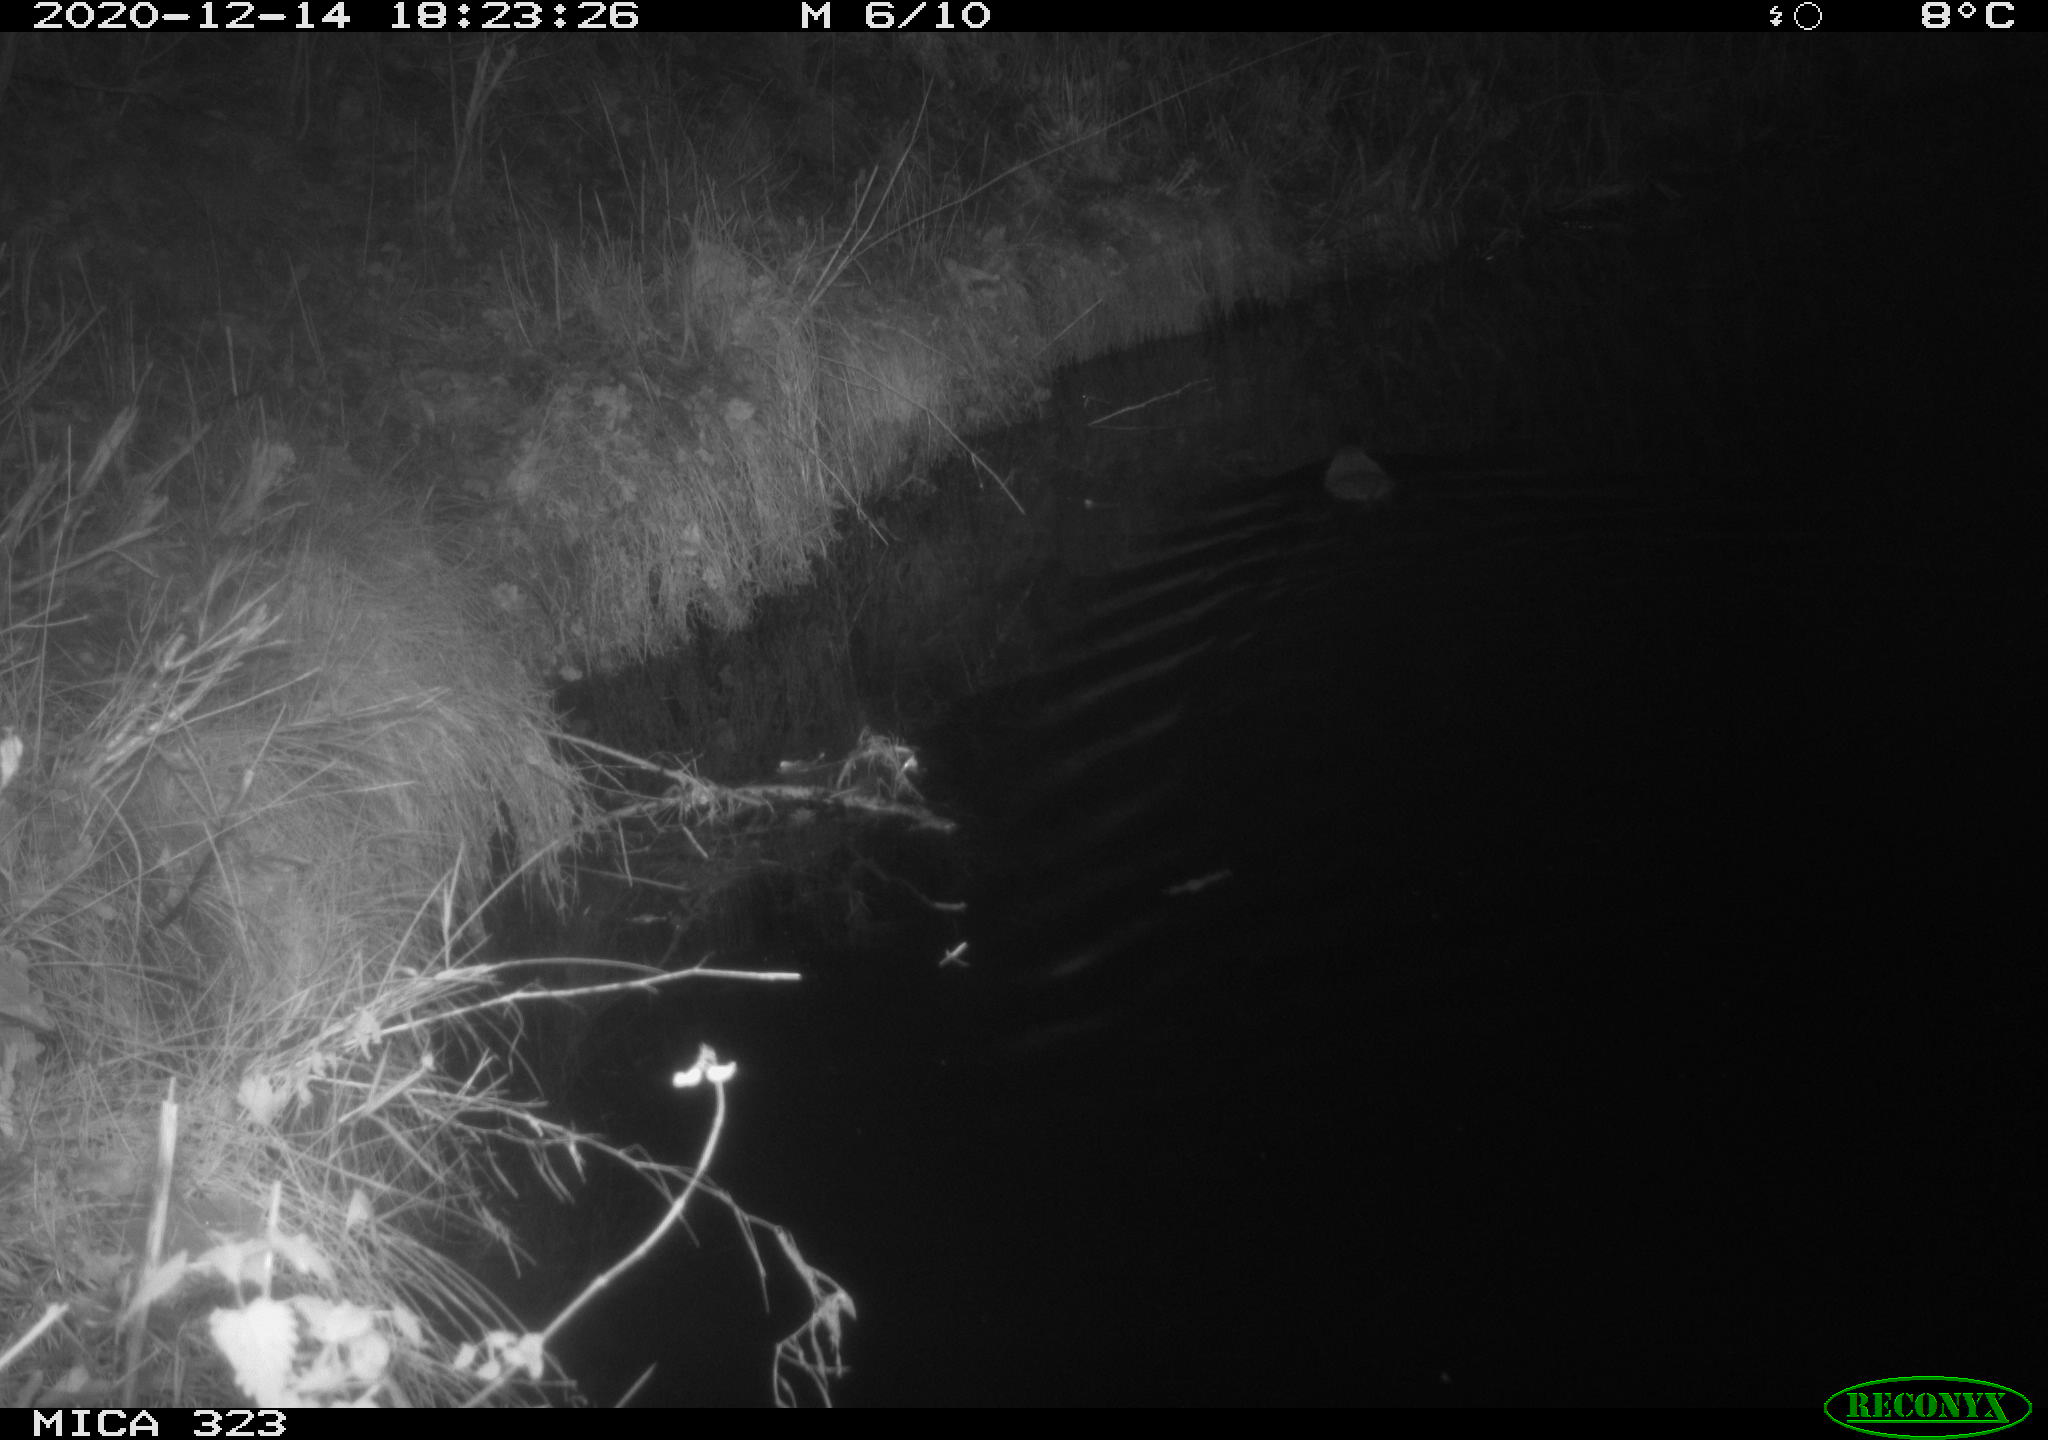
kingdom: Animalia
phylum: Chordata
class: Mammalia
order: Rodentia
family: Myocastoridae
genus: Myocastor
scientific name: Myocastor coypus
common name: Coypu
